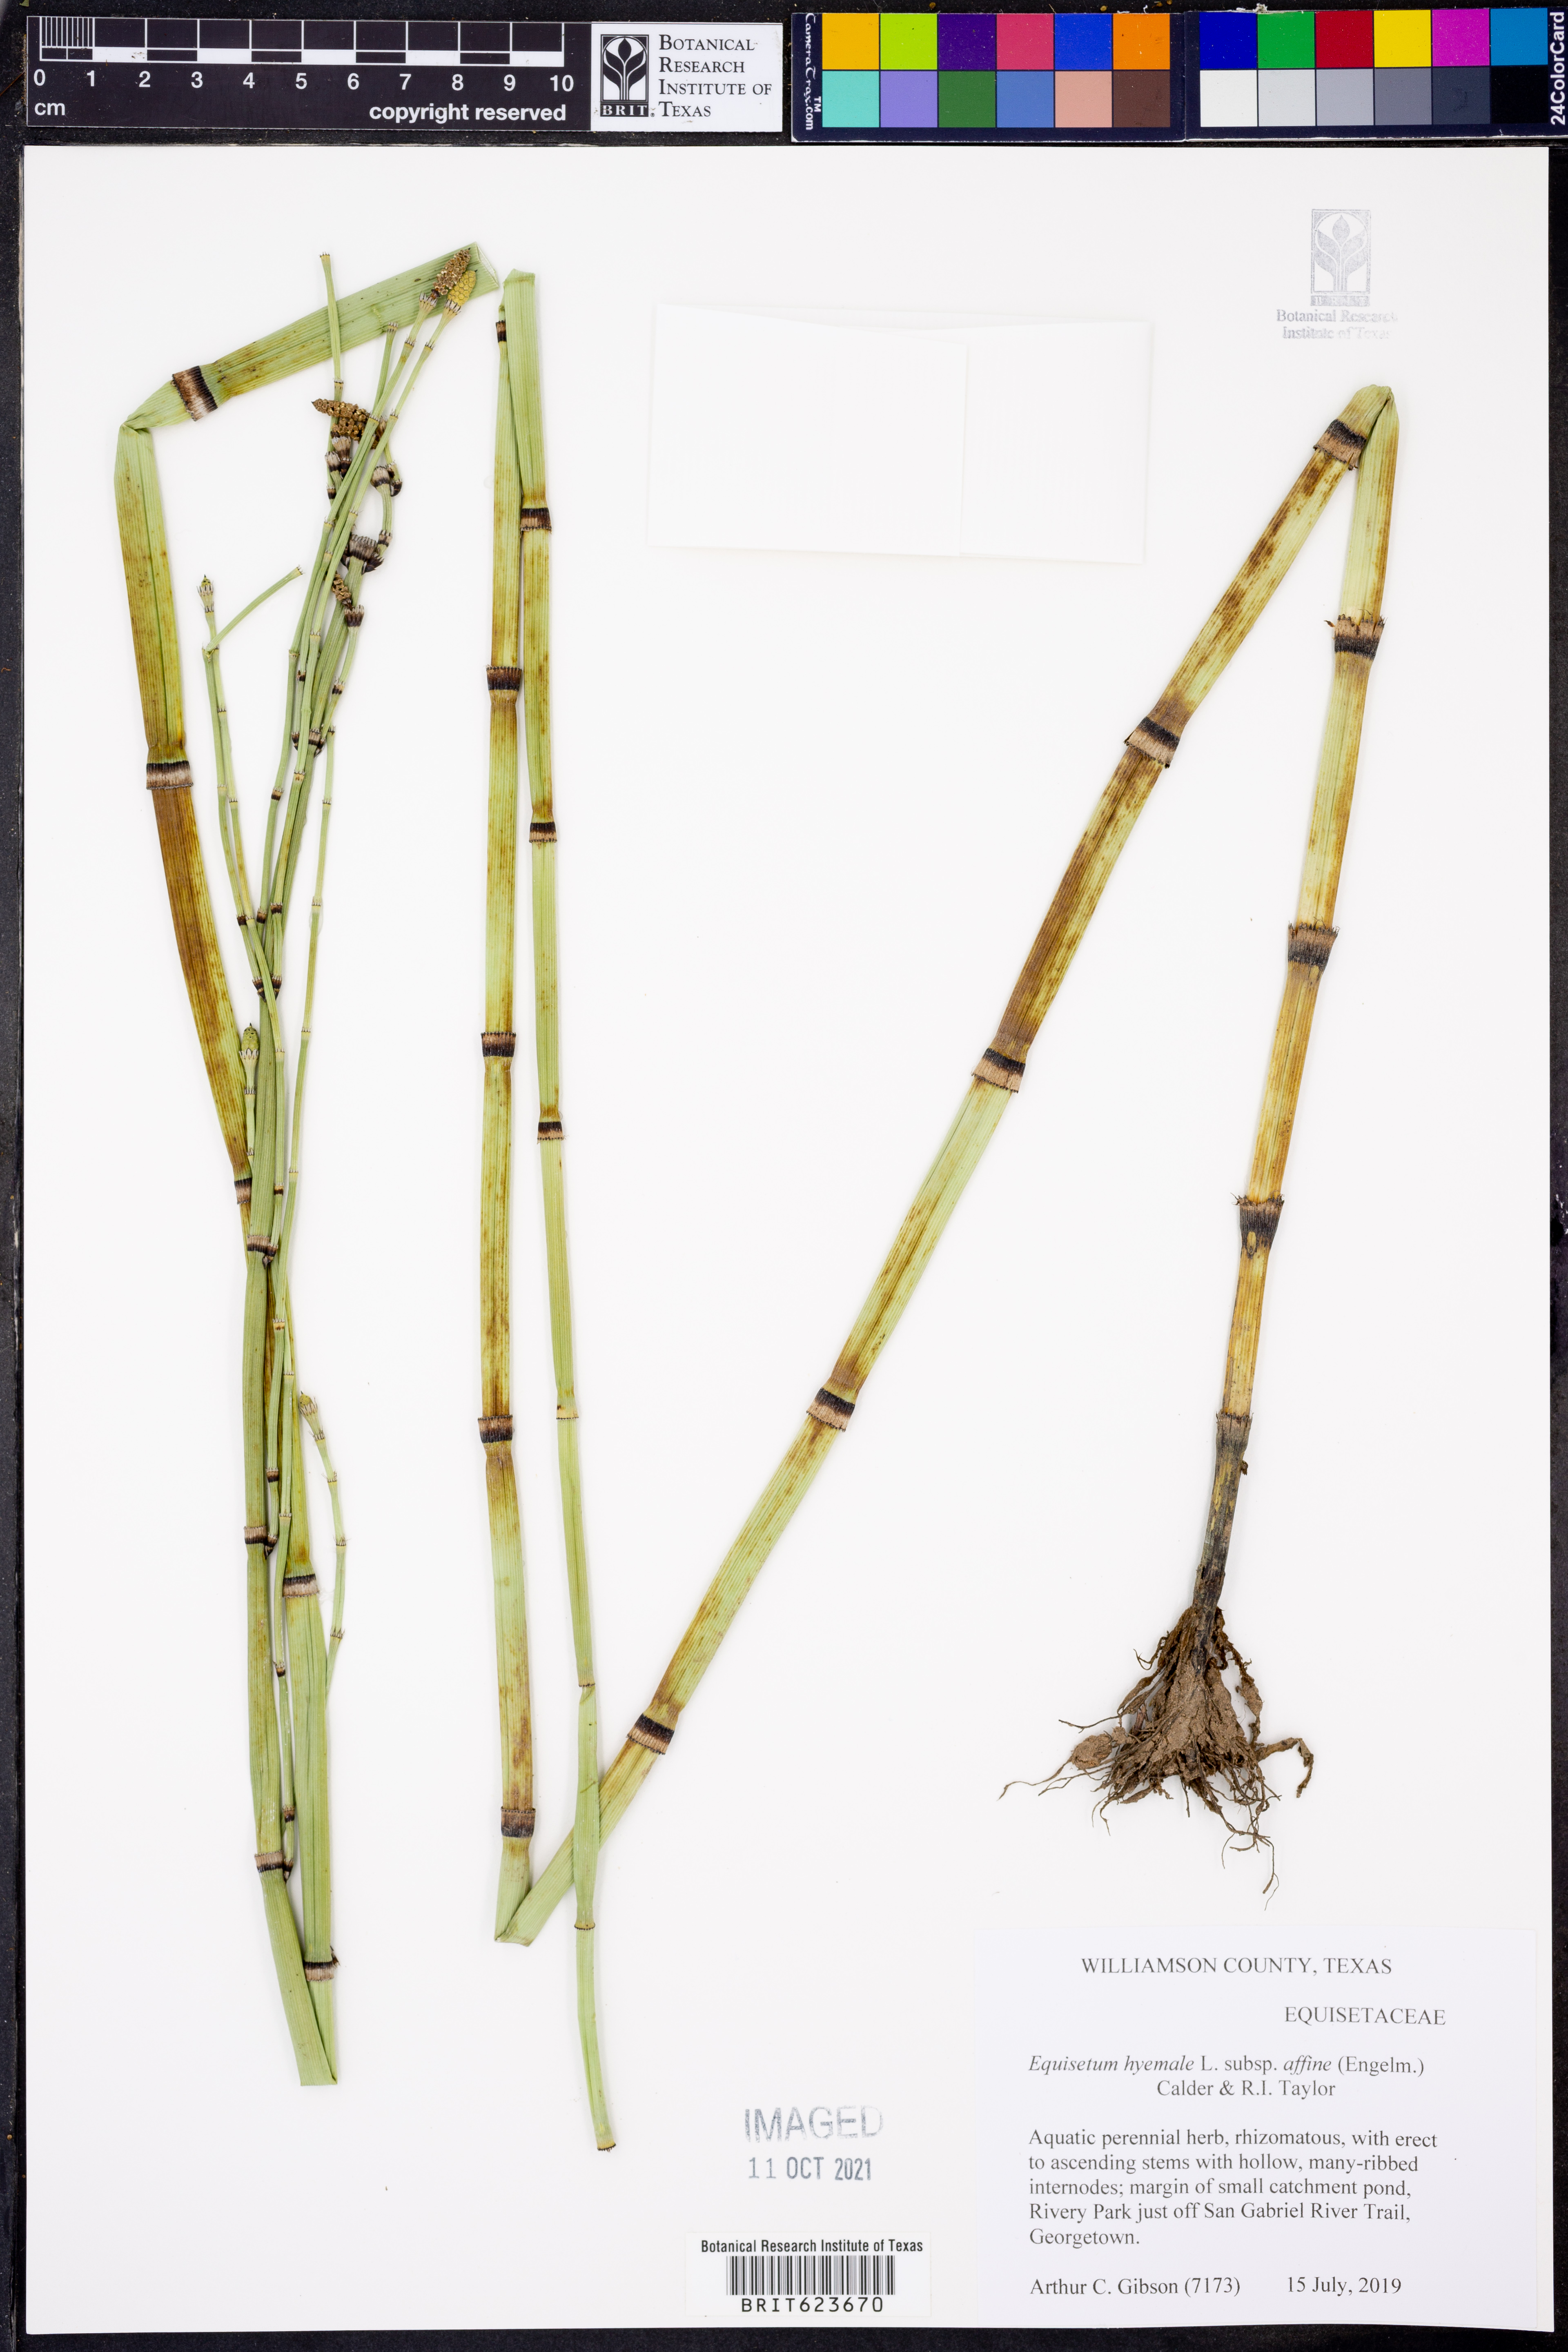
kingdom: Plantae
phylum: Tracheophyta
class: Polypodiopsida
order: Equisetales
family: Equisetaceae
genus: Equisetum
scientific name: Equisetum praealtum
